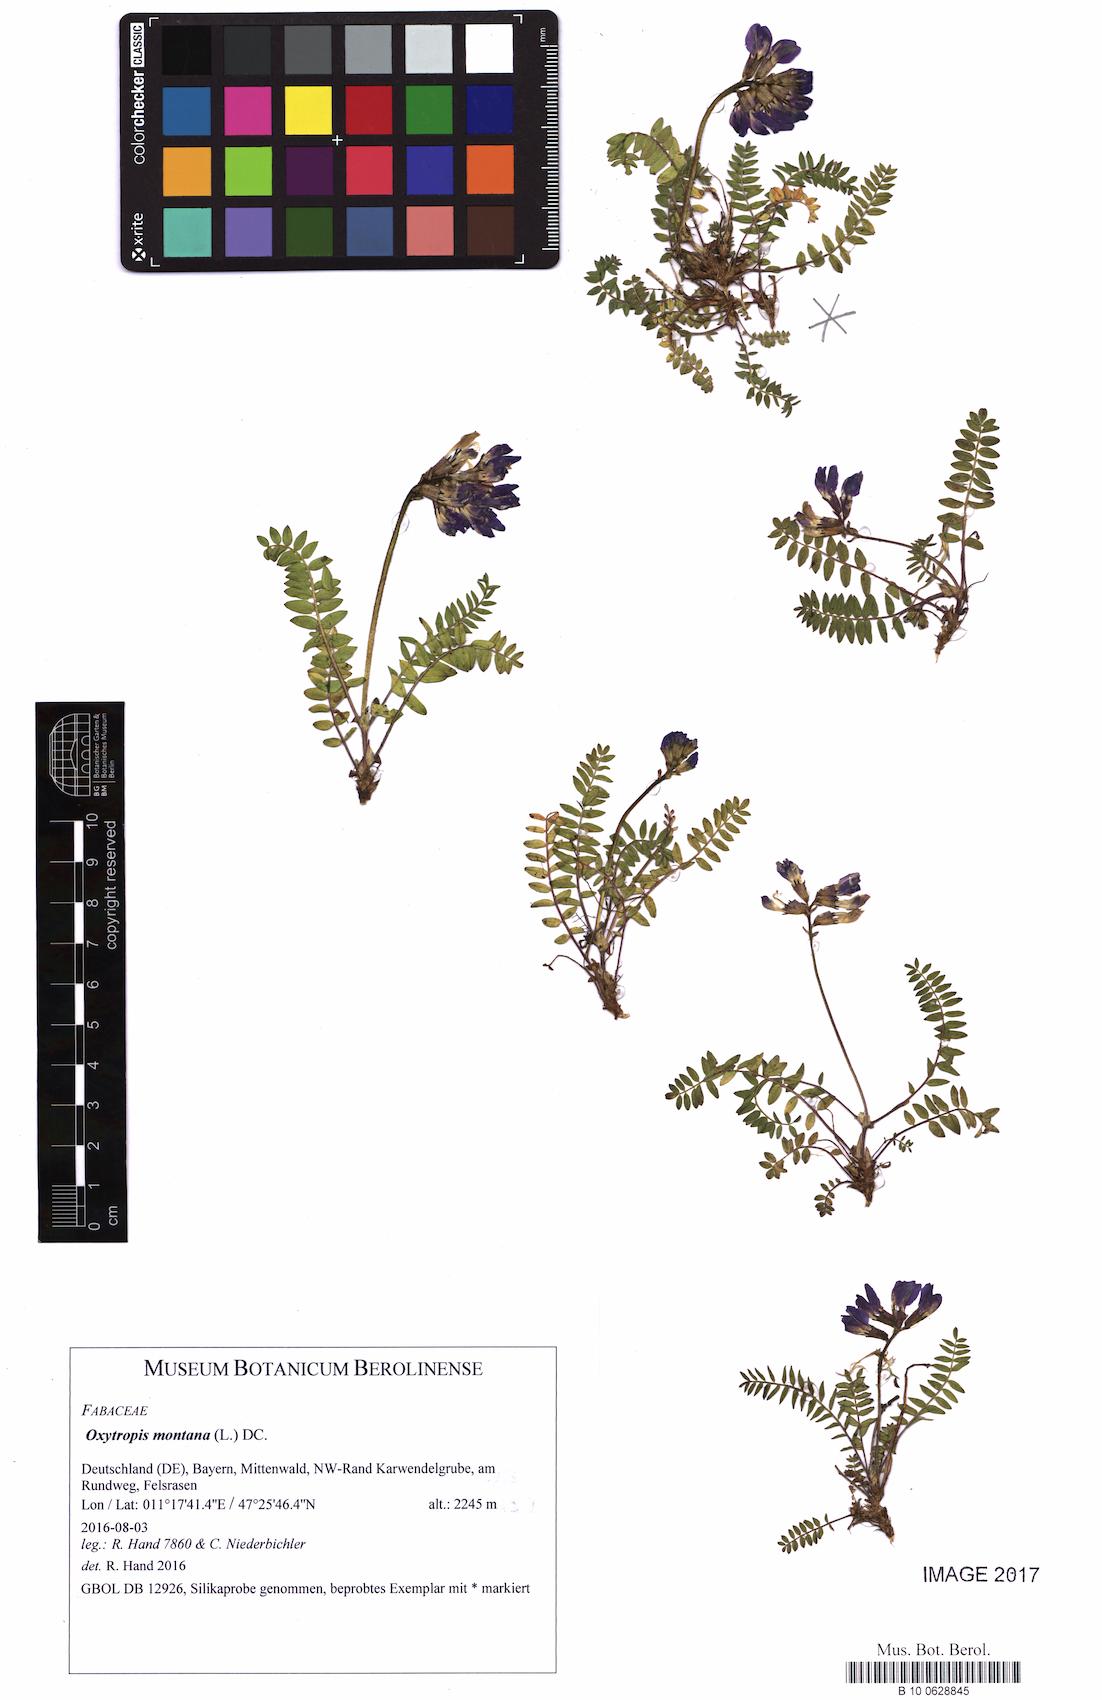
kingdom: Plantae
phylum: Tracheophyta
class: Magnoliopsida
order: Fabales
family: Fabaceae
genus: Oxytropis
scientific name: Oxytropis montana
